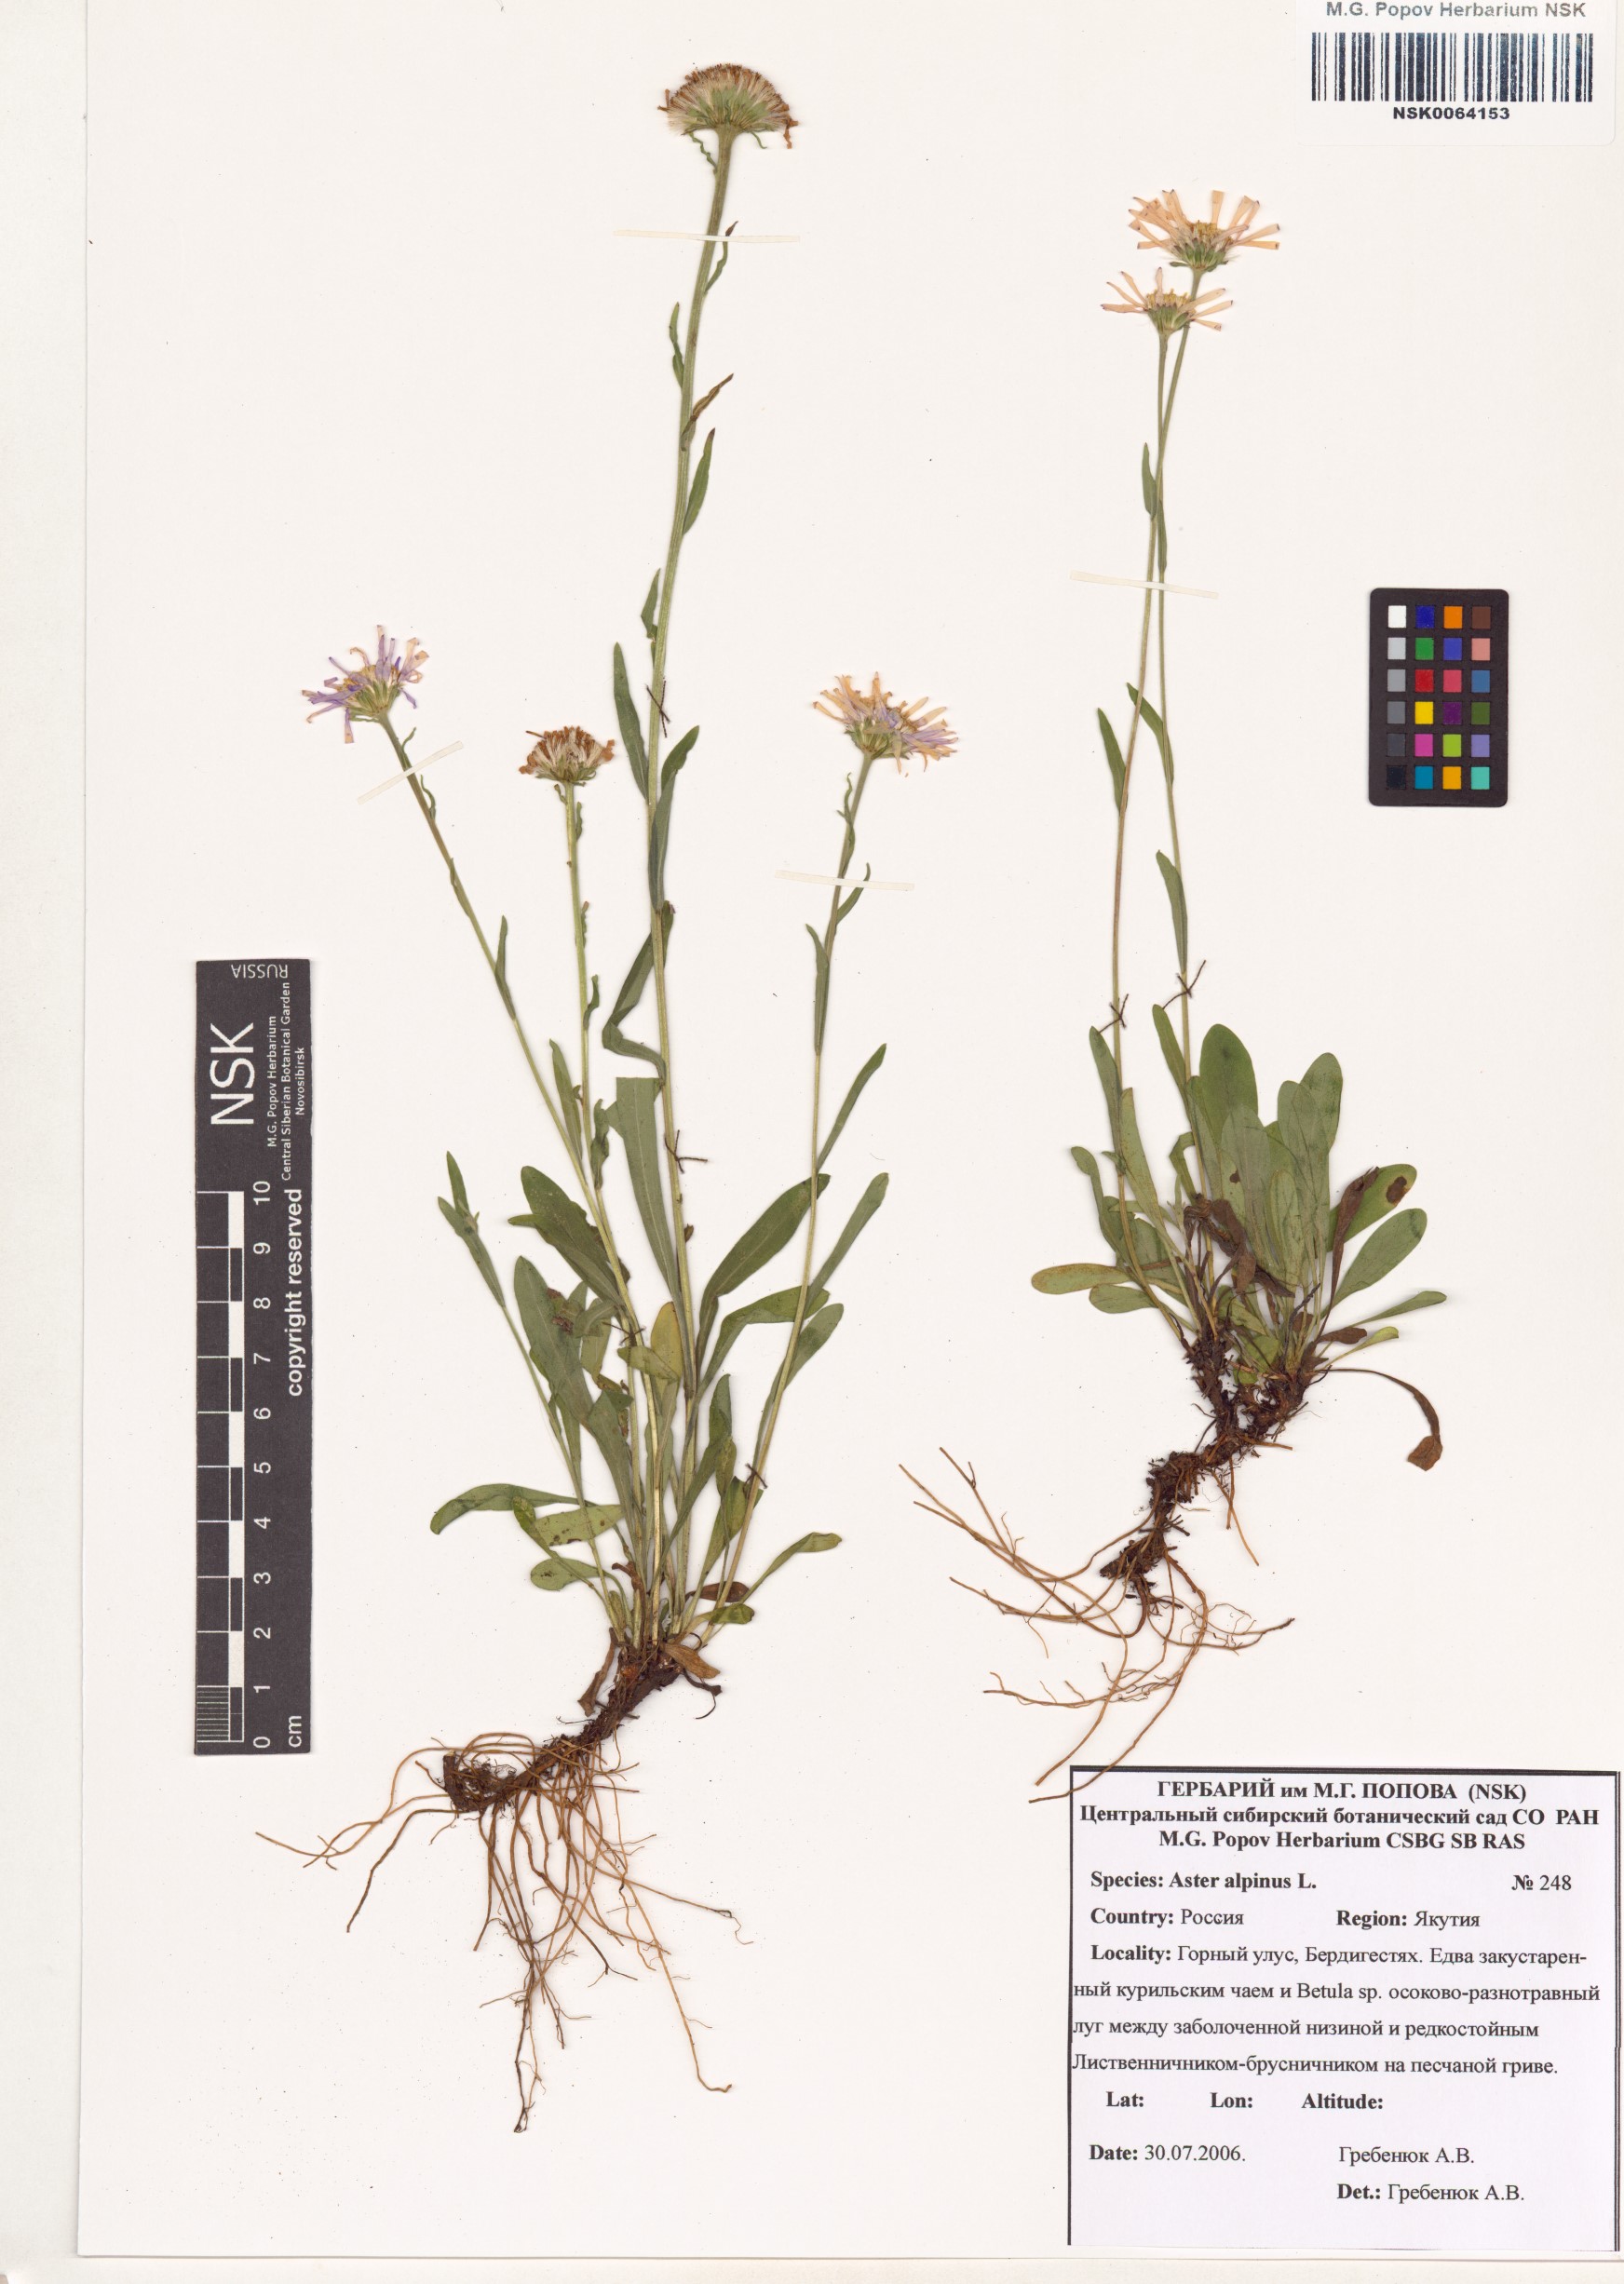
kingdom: Plantae
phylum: Tracheophyta
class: Magnoliopsida
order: Asterales
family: Asteraceae
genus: Aster
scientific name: Aster alpinus
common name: Alpine aster
